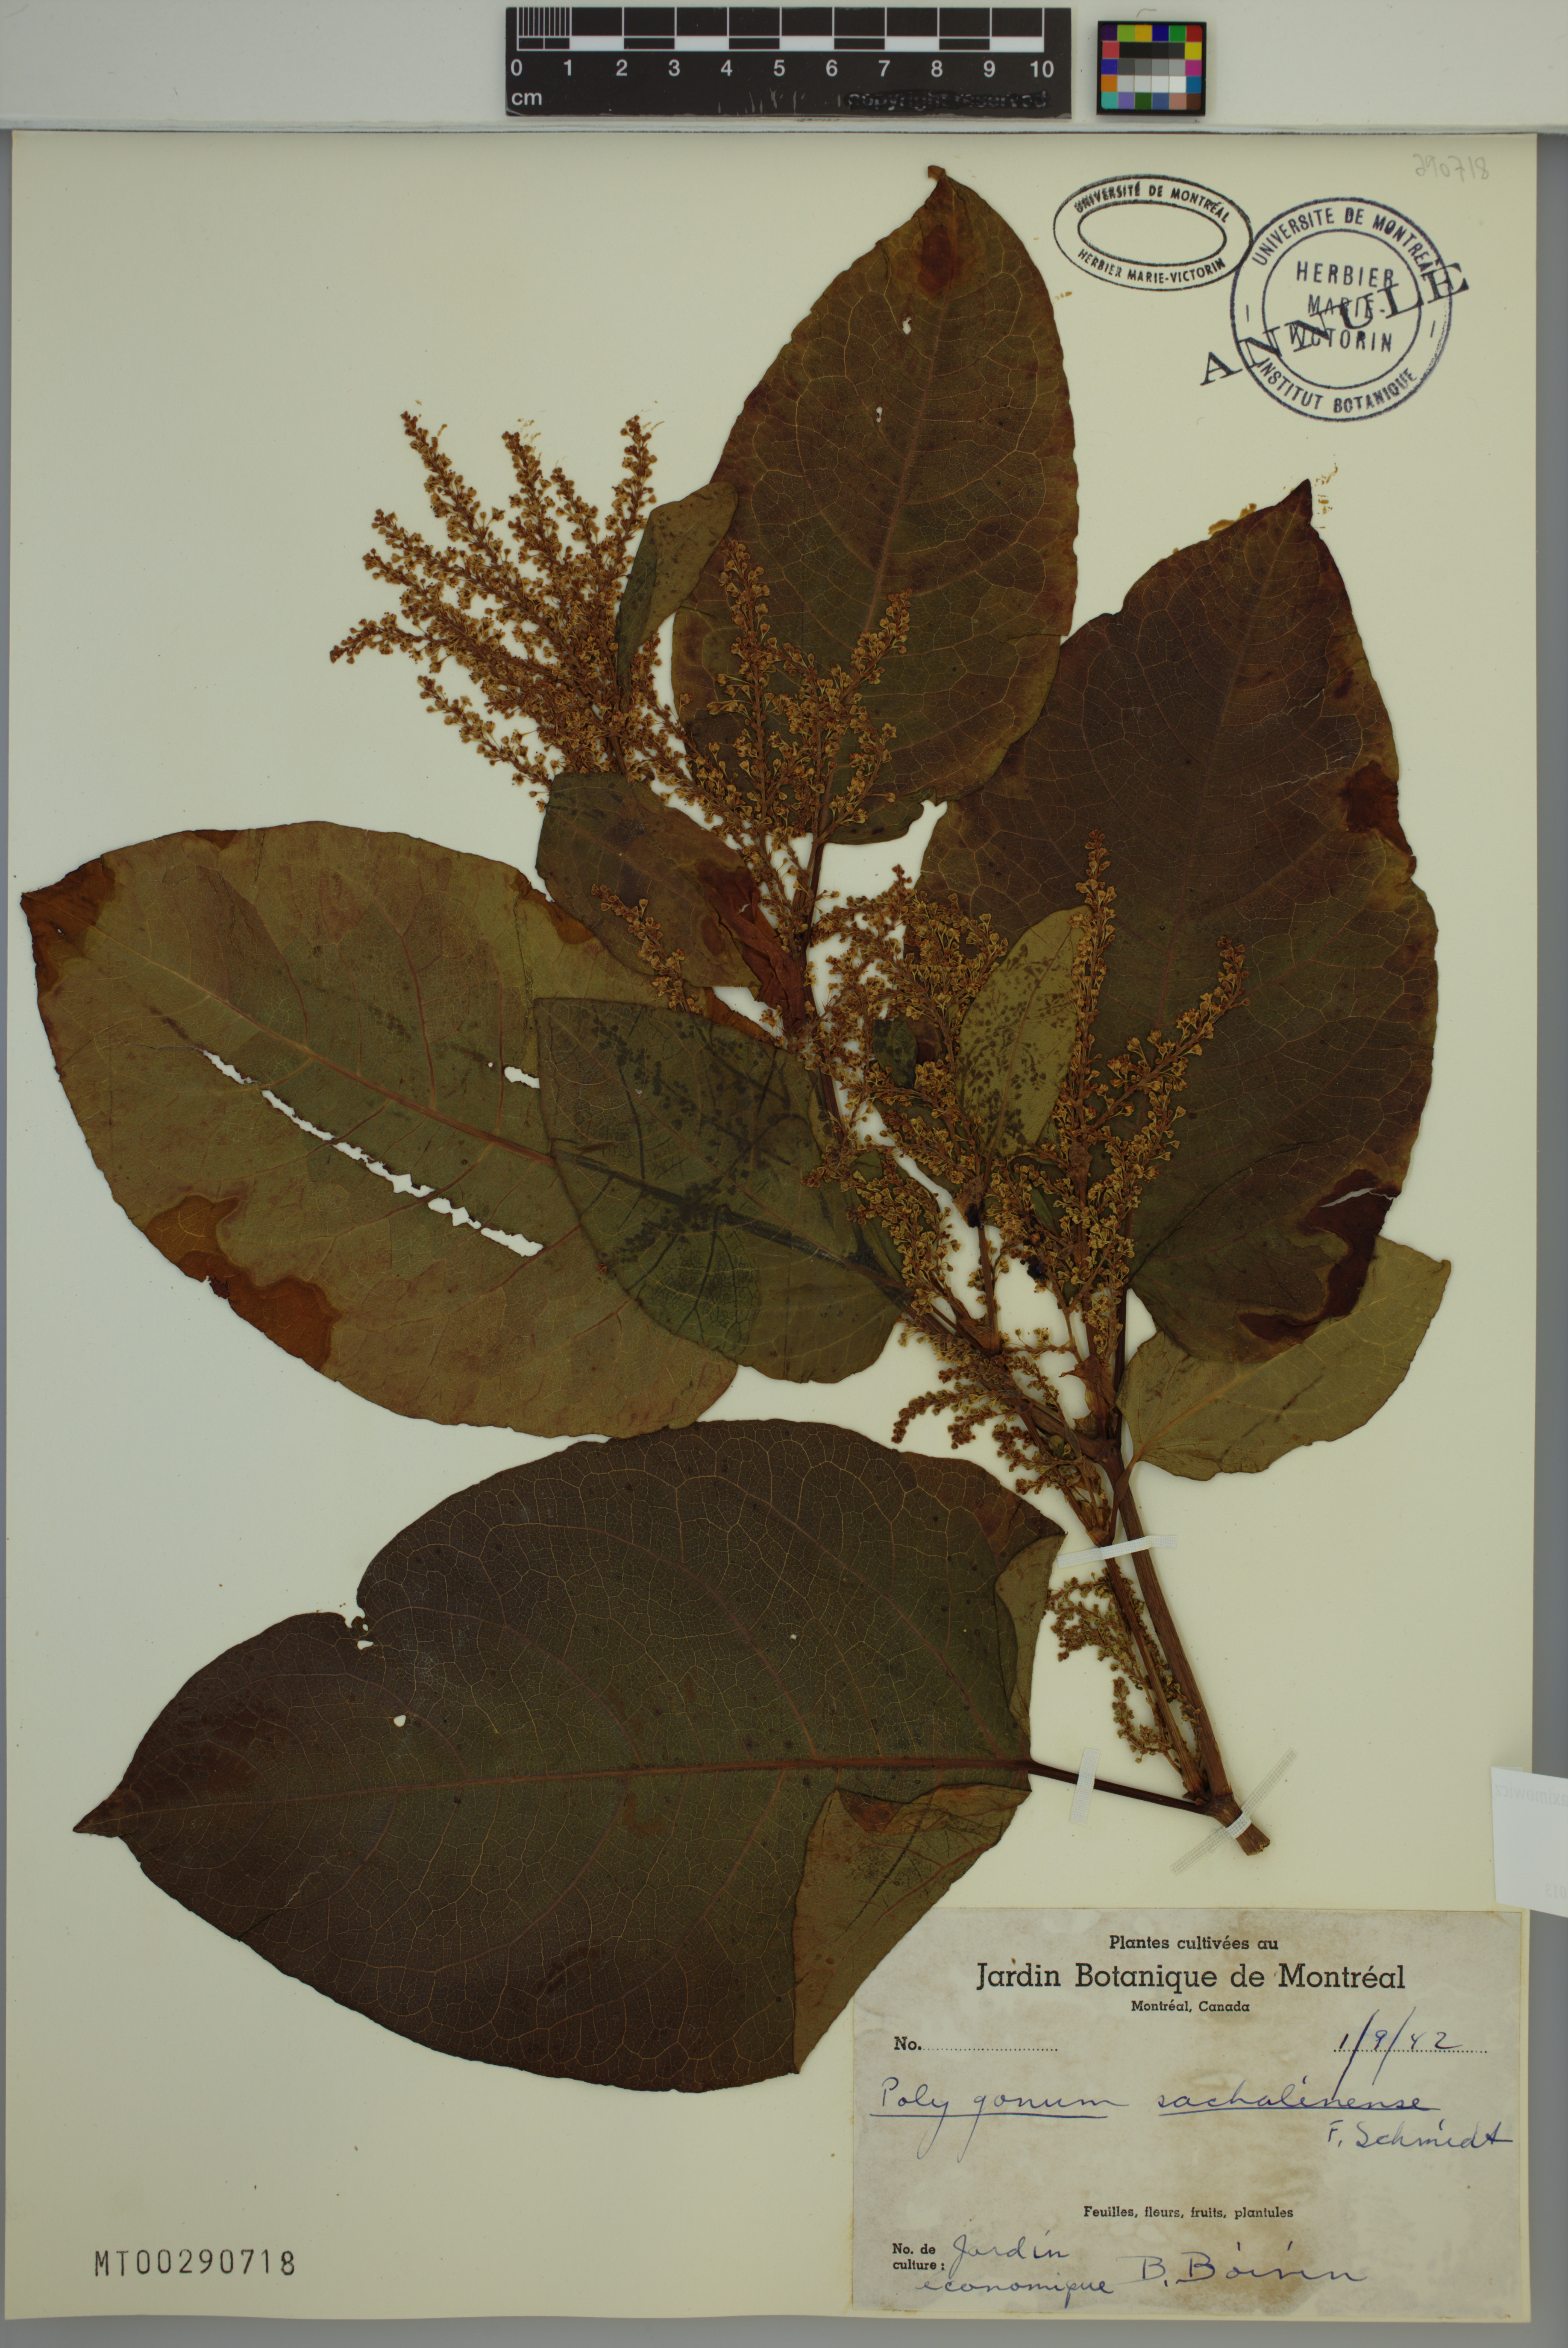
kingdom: Plantae
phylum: Tracheophyta
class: Magnoliopsida
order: Caryophyllales
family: Polygonaceae
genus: Reynoutria
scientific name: Reynoutria sachalinensis
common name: Giant knotweed
